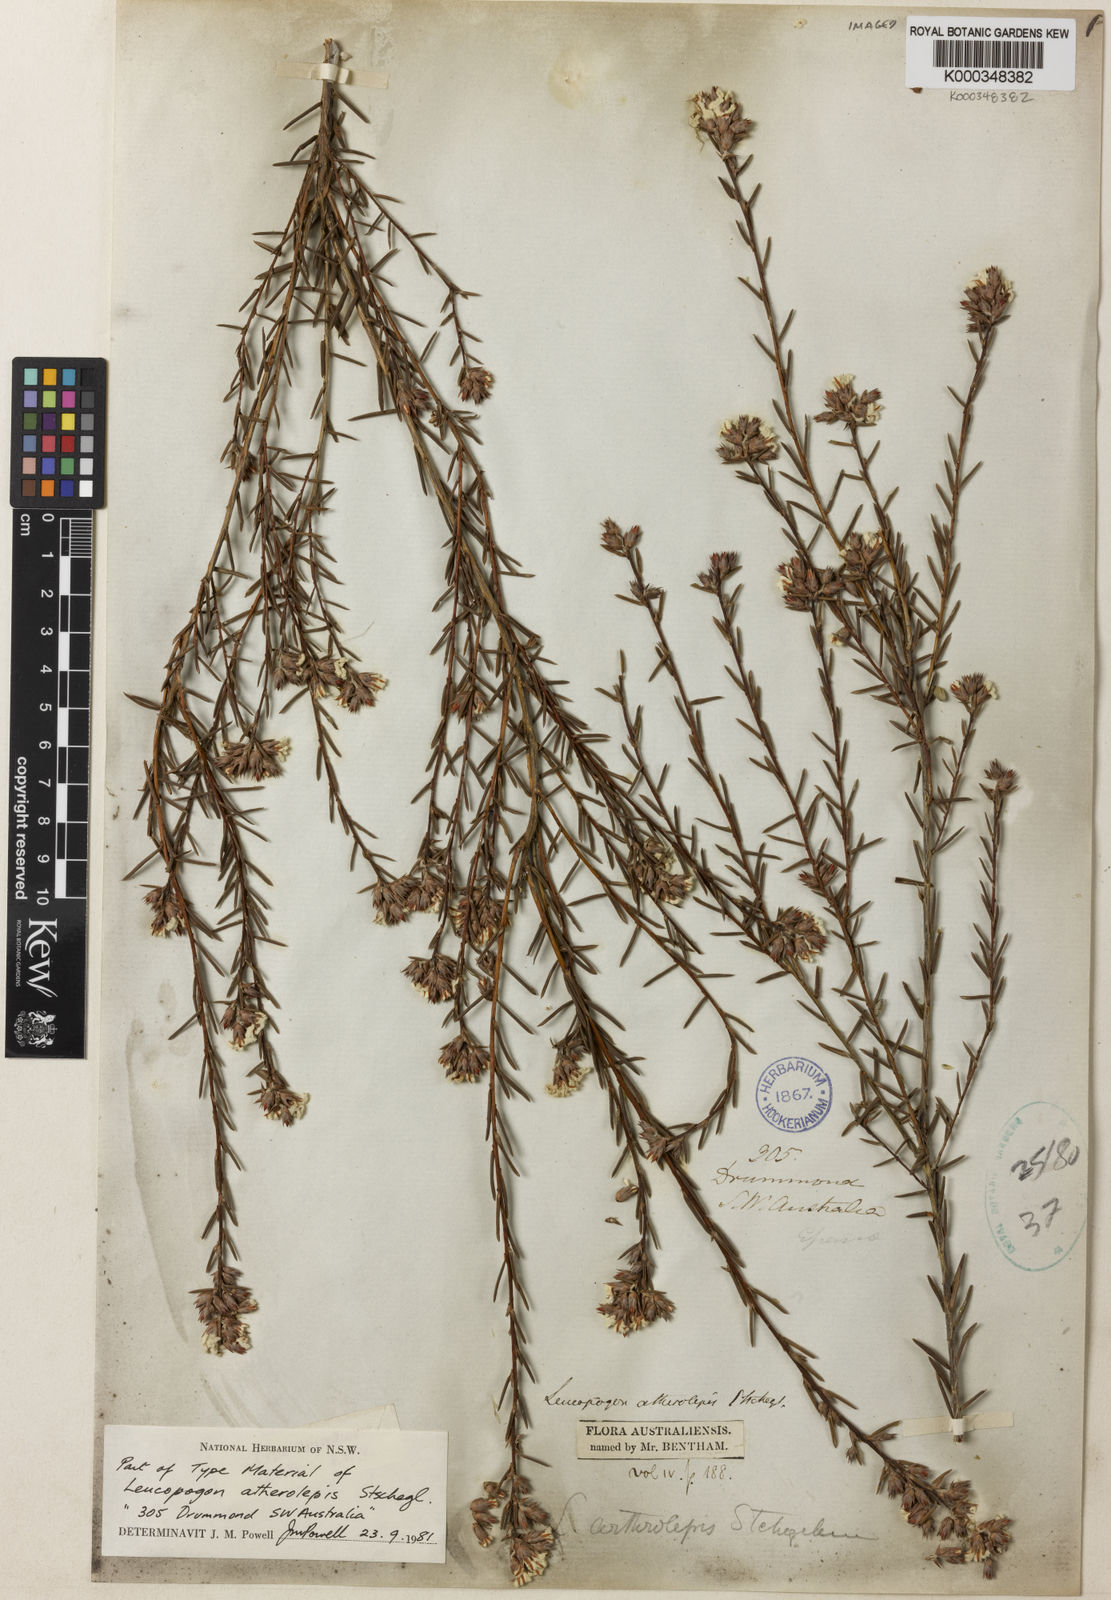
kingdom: Plantae
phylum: Tracheophyta
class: Magnoliopsida
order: Ericales
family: Ericaceae
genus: Leucopogon
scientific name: Leucopogon atherolepis
